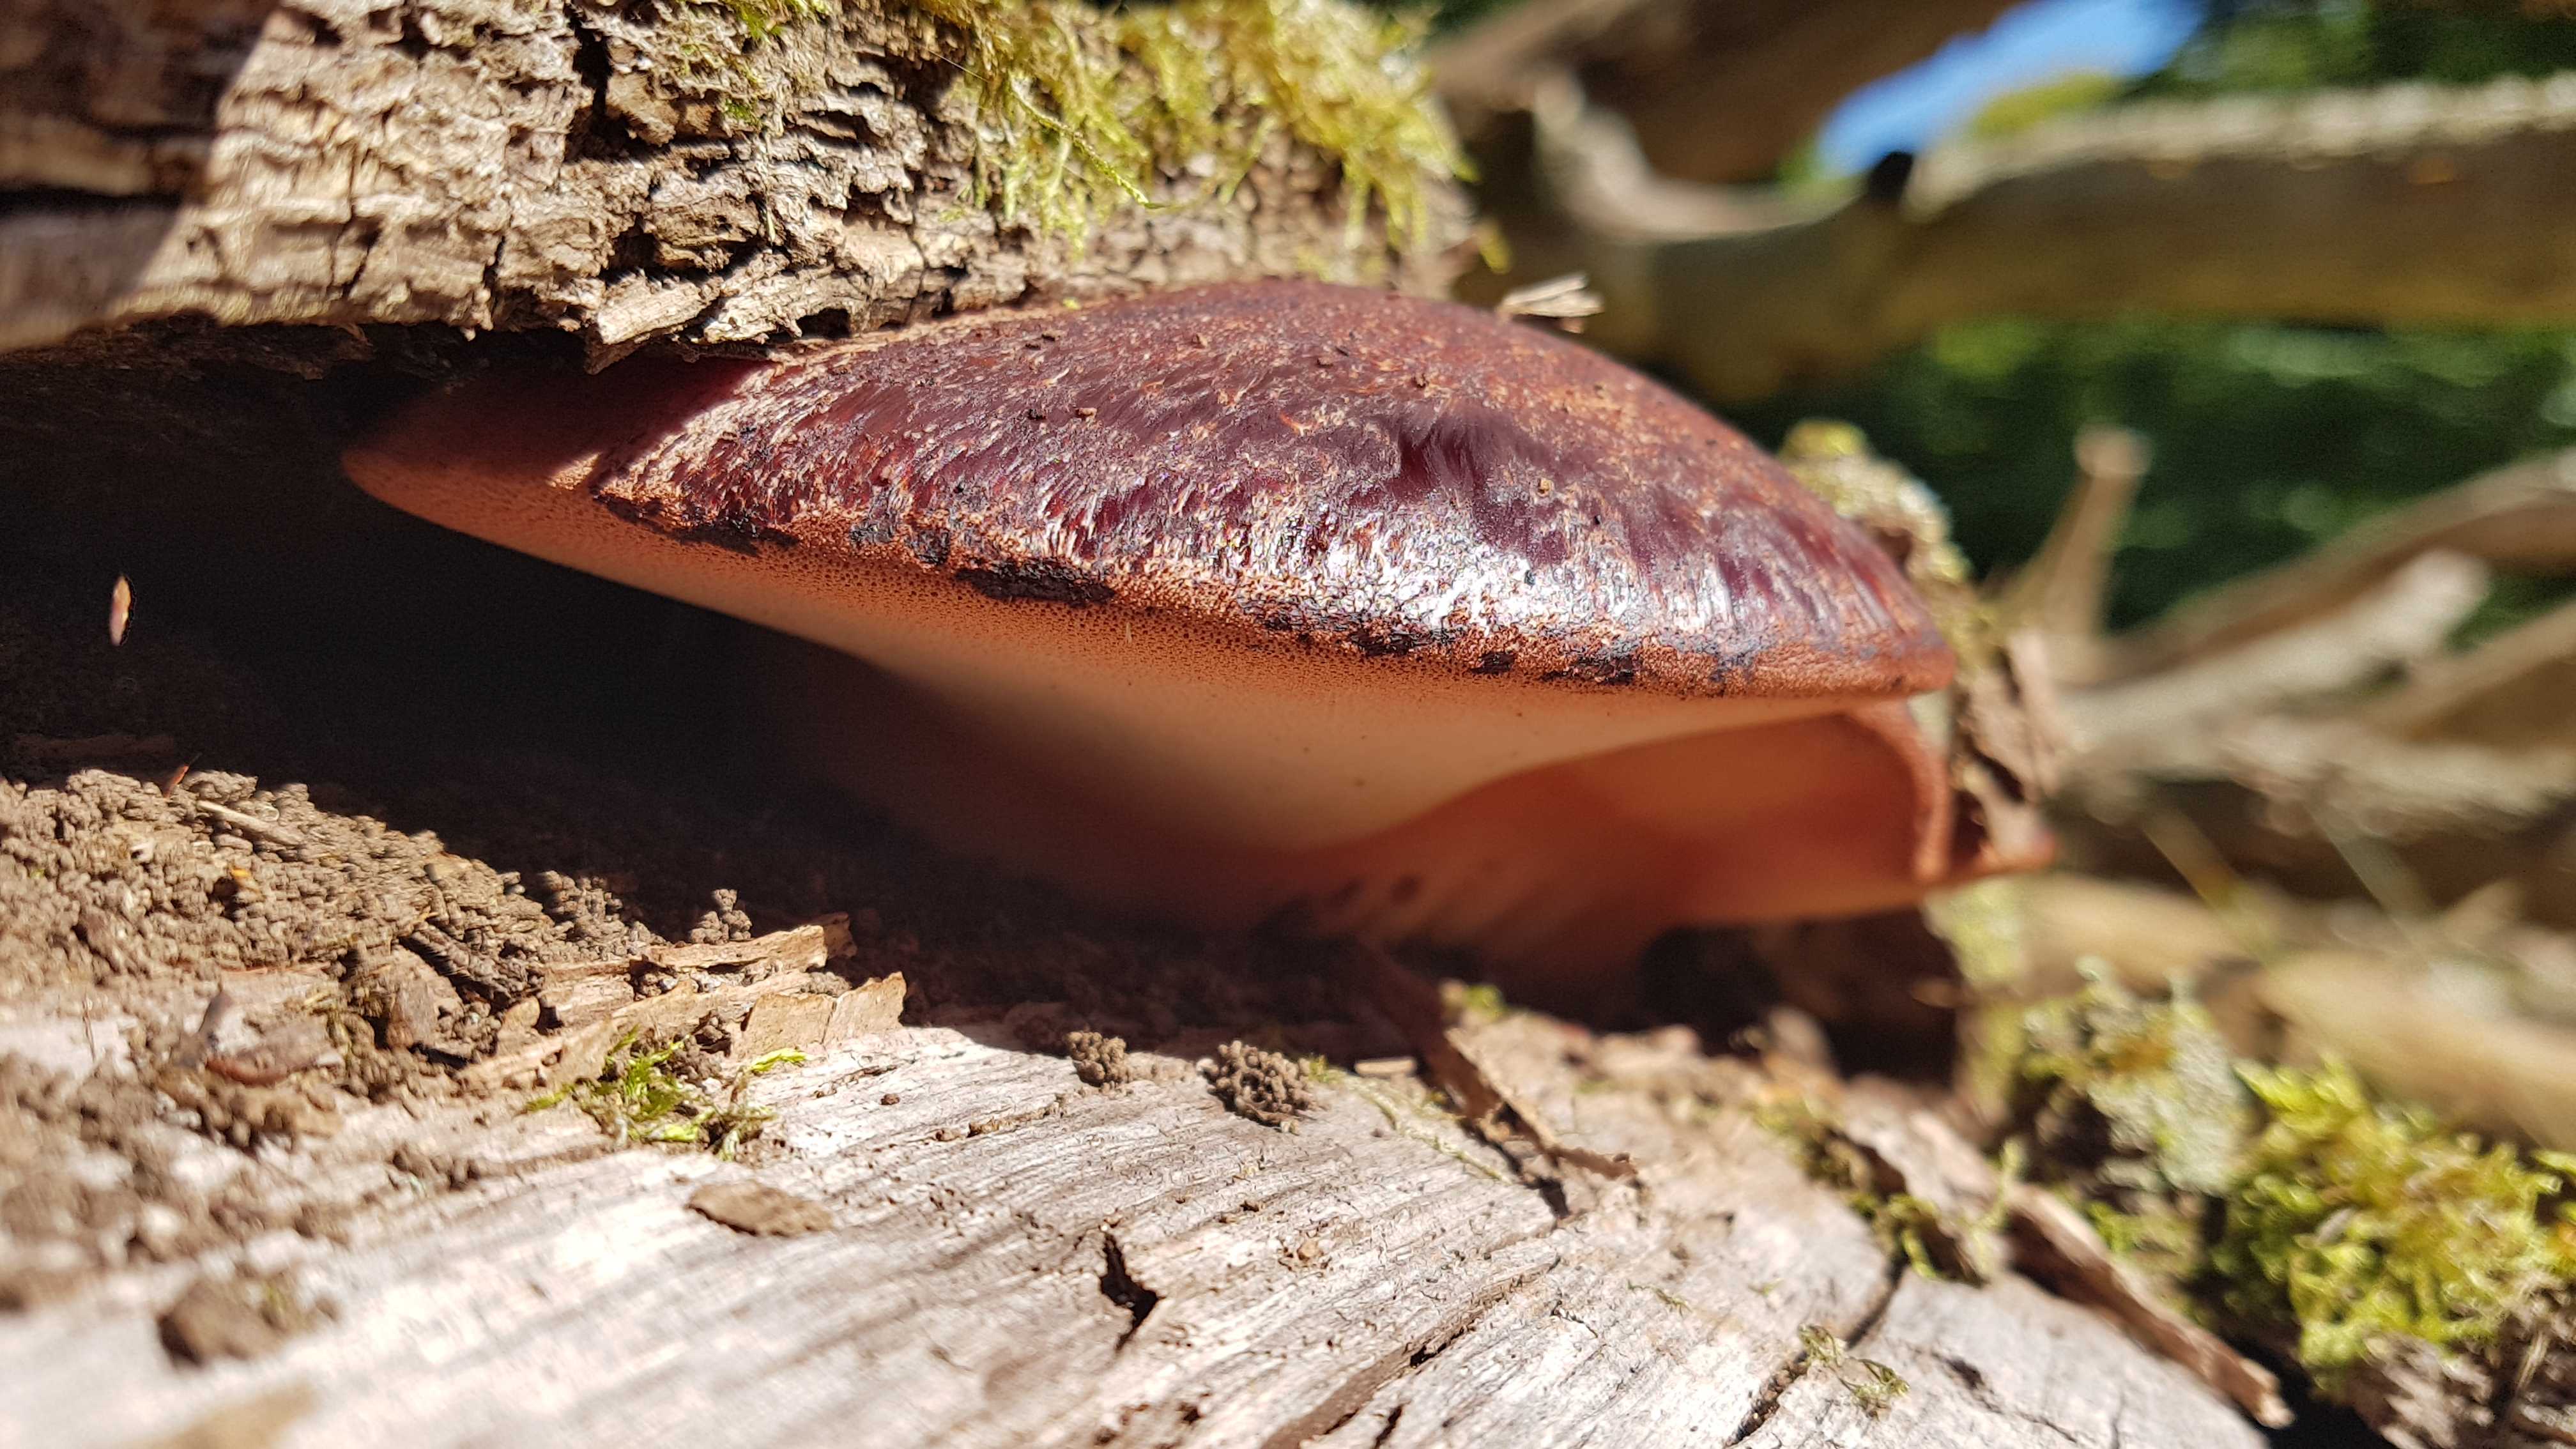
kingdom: Fungi
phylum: Basidiomycota
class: Agaricomycetes
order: Agaricales
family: Fistulinaceae
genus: Fistulina
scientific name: Fistulina hepatica
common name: oksetunge
